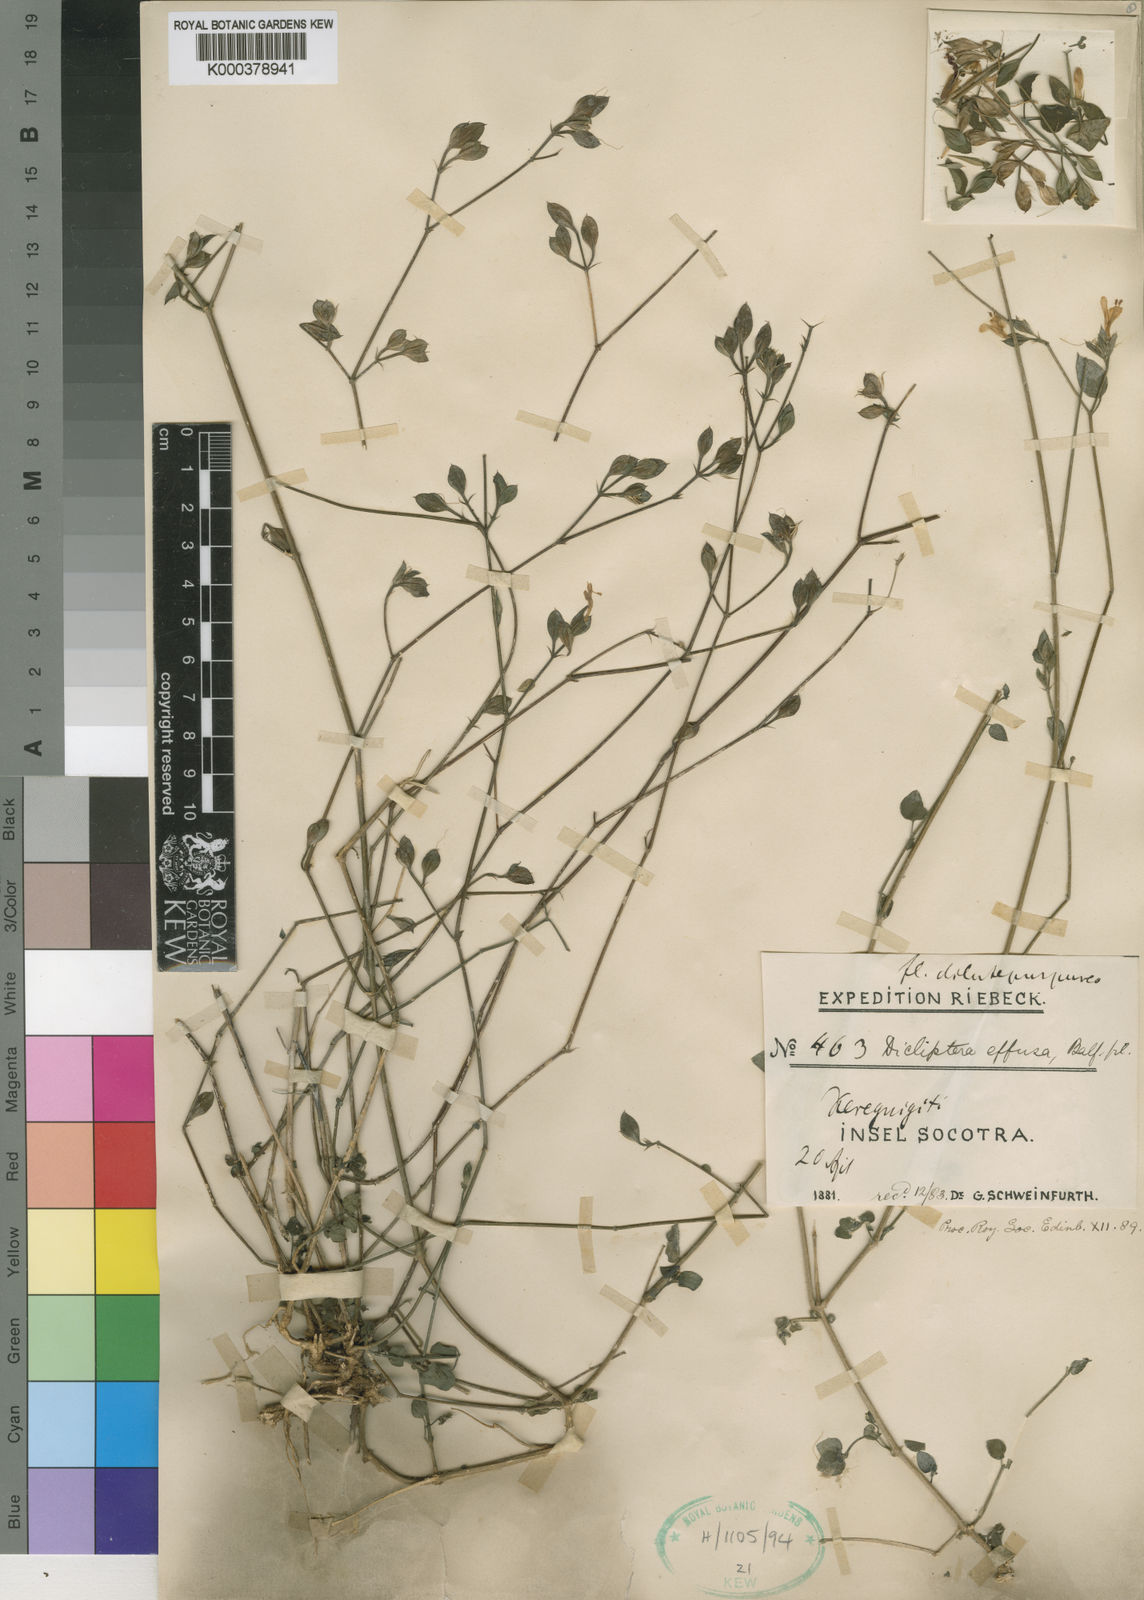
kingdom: Plantae
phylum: Tracheophyta
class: Magnoliopsida
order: Lamiales
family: Acanthaceae
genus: Dicliptera
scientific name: Dicliptera effusa
